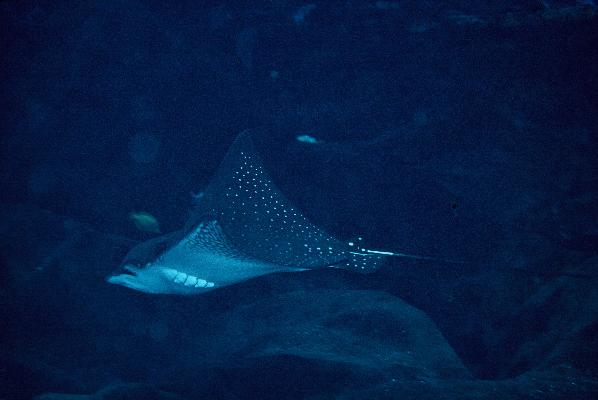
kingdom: Animalia
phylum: Chordata
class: Elasmobranchii
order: Myliobatiformes
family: Myliobatidae
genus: Aetobatus
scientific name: Aetobatus narinari
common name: Spotted eagle ray
